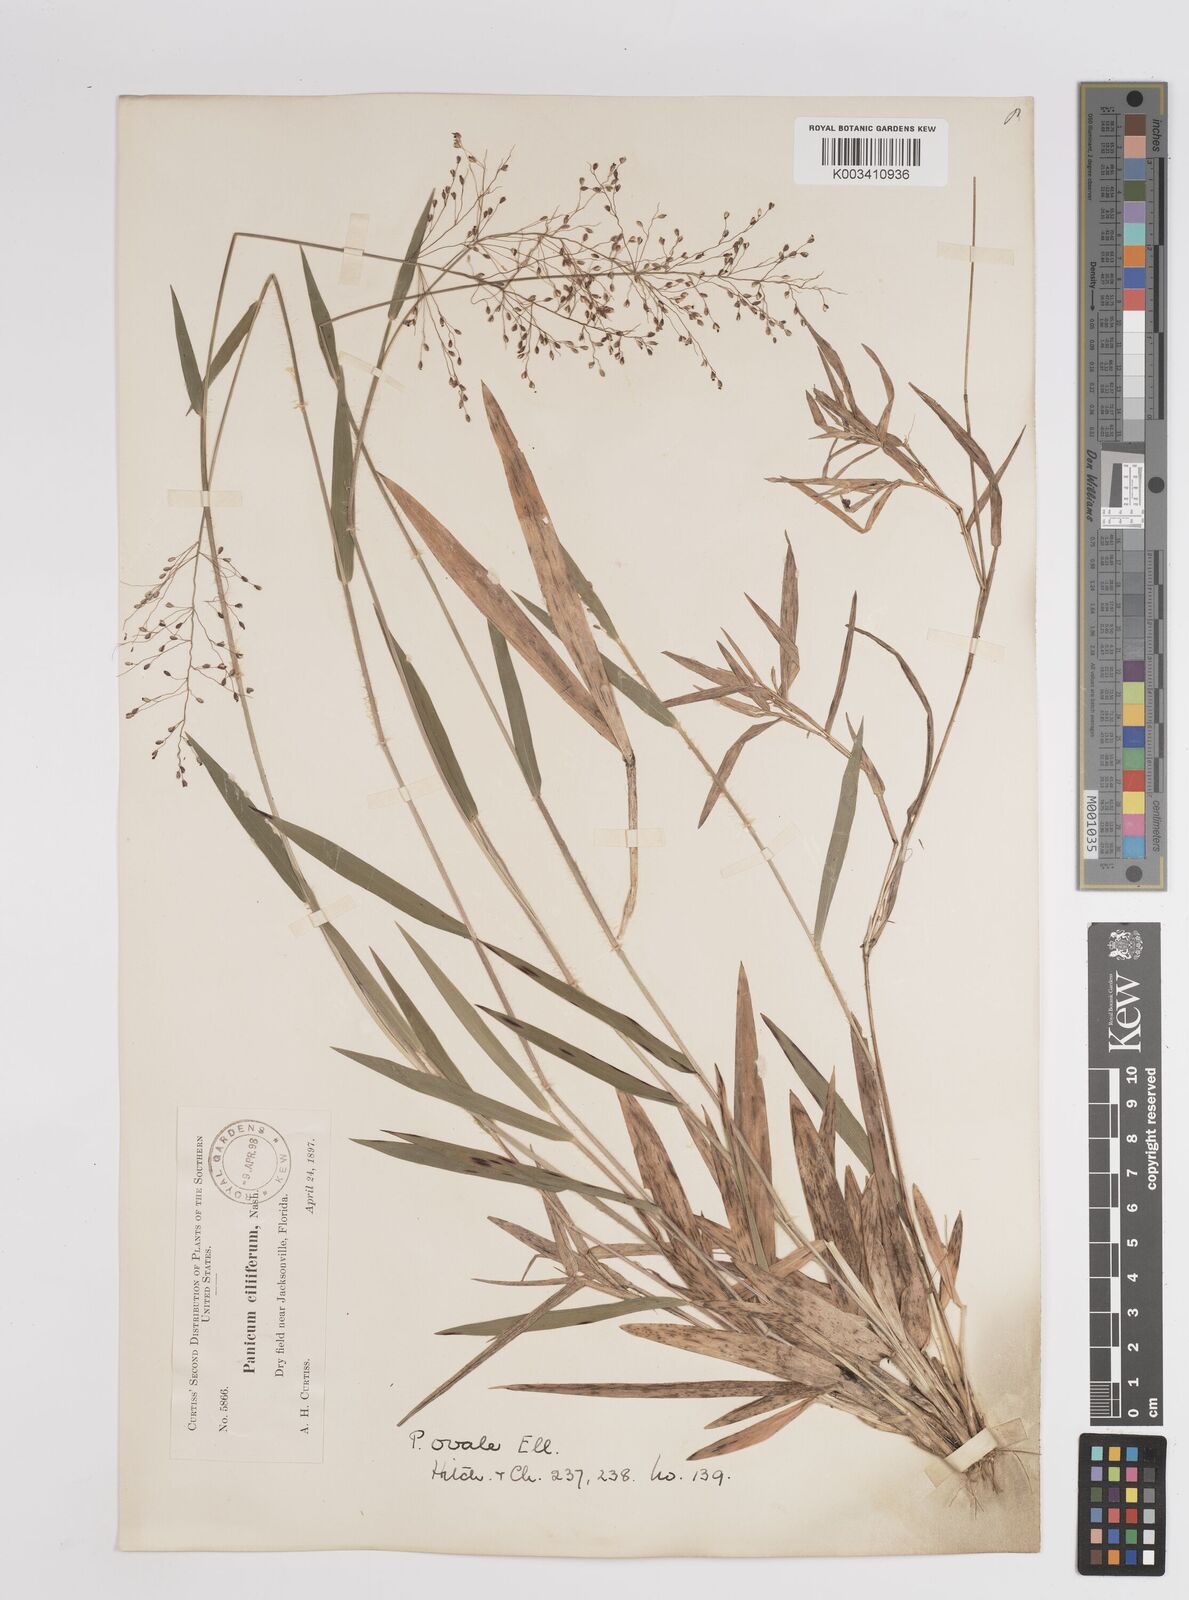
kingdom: Plantae
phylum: Tracheophyta
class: Liliopsida
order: Poales
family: Poaceae
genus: Dichanthelium
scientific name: Dichanthelium ovale
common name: Stiff-leaved panicgrass
